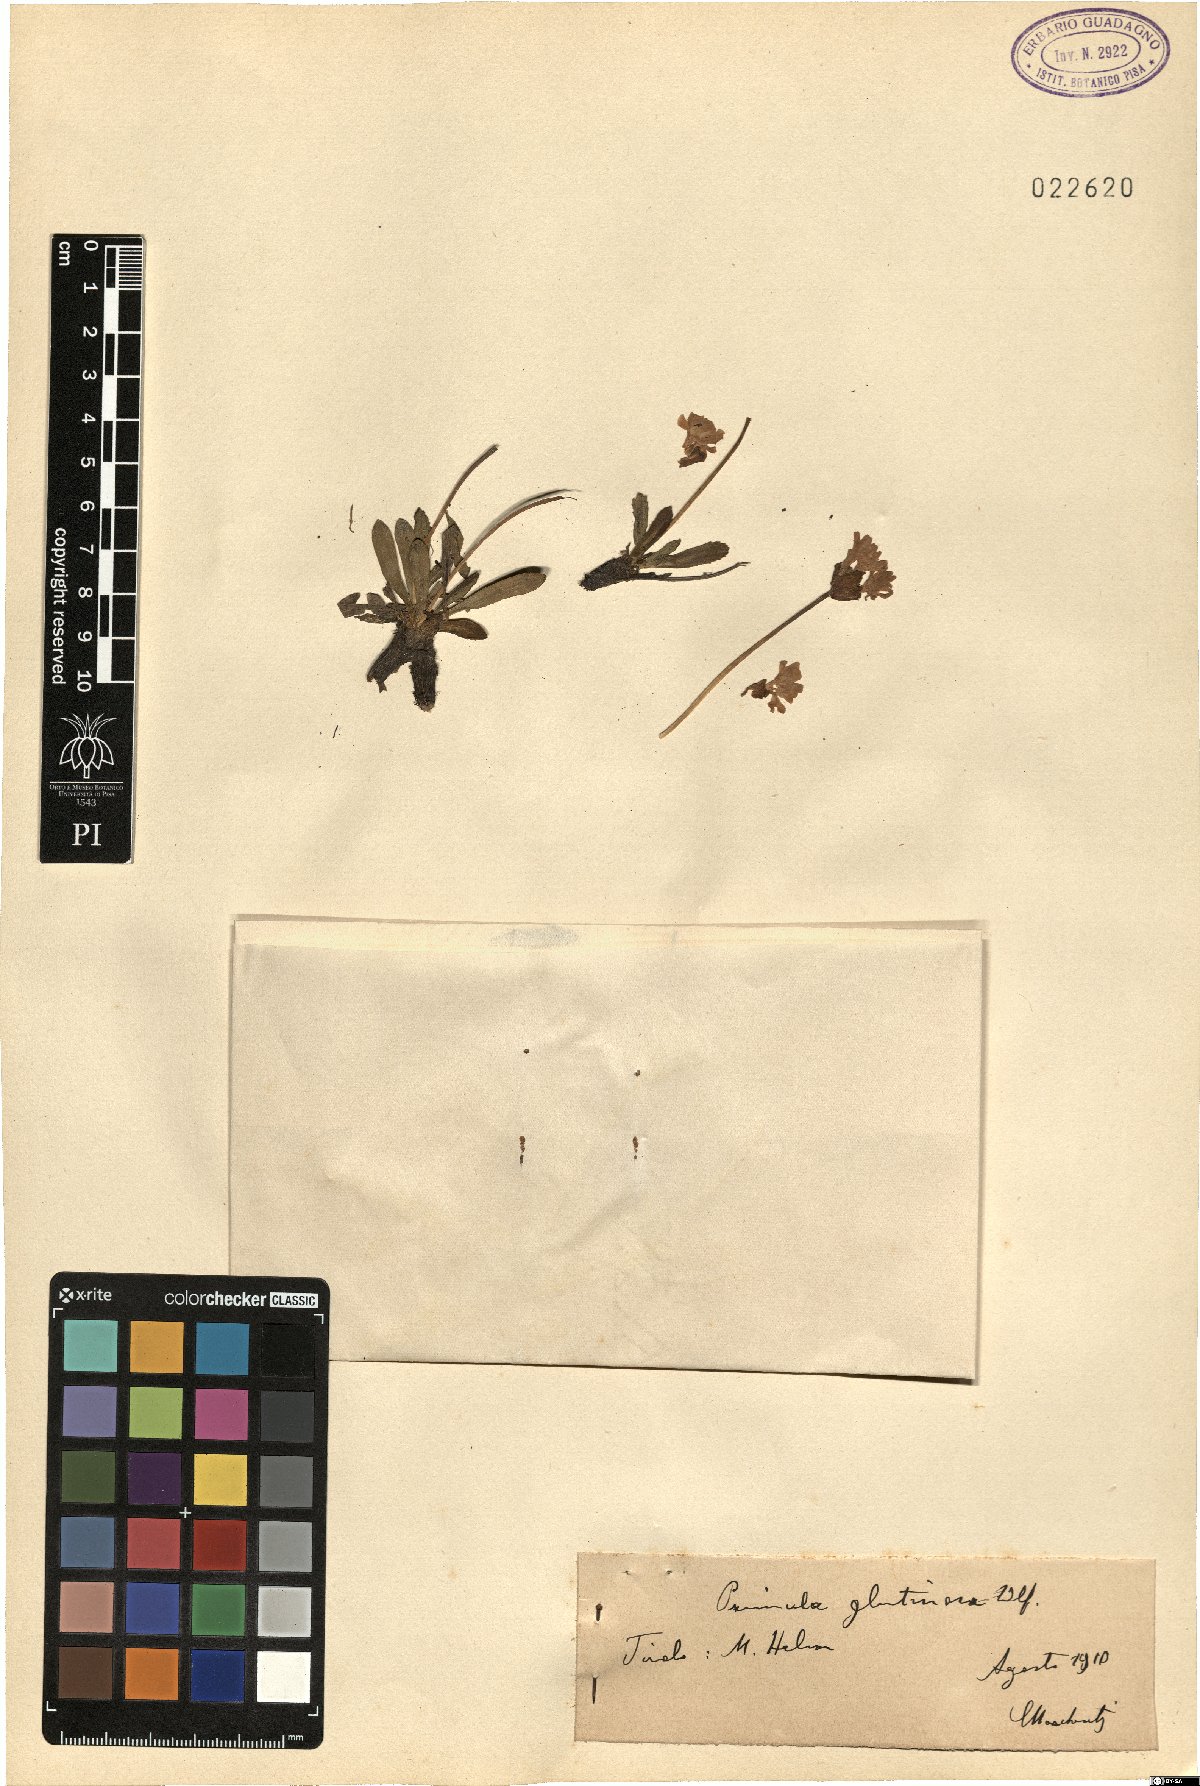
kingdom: Plantae
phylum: Tracheophyta
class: Magnoliopsida
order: Ericales
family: Primulaceae
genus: Primula
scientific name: Primula glutinosa
